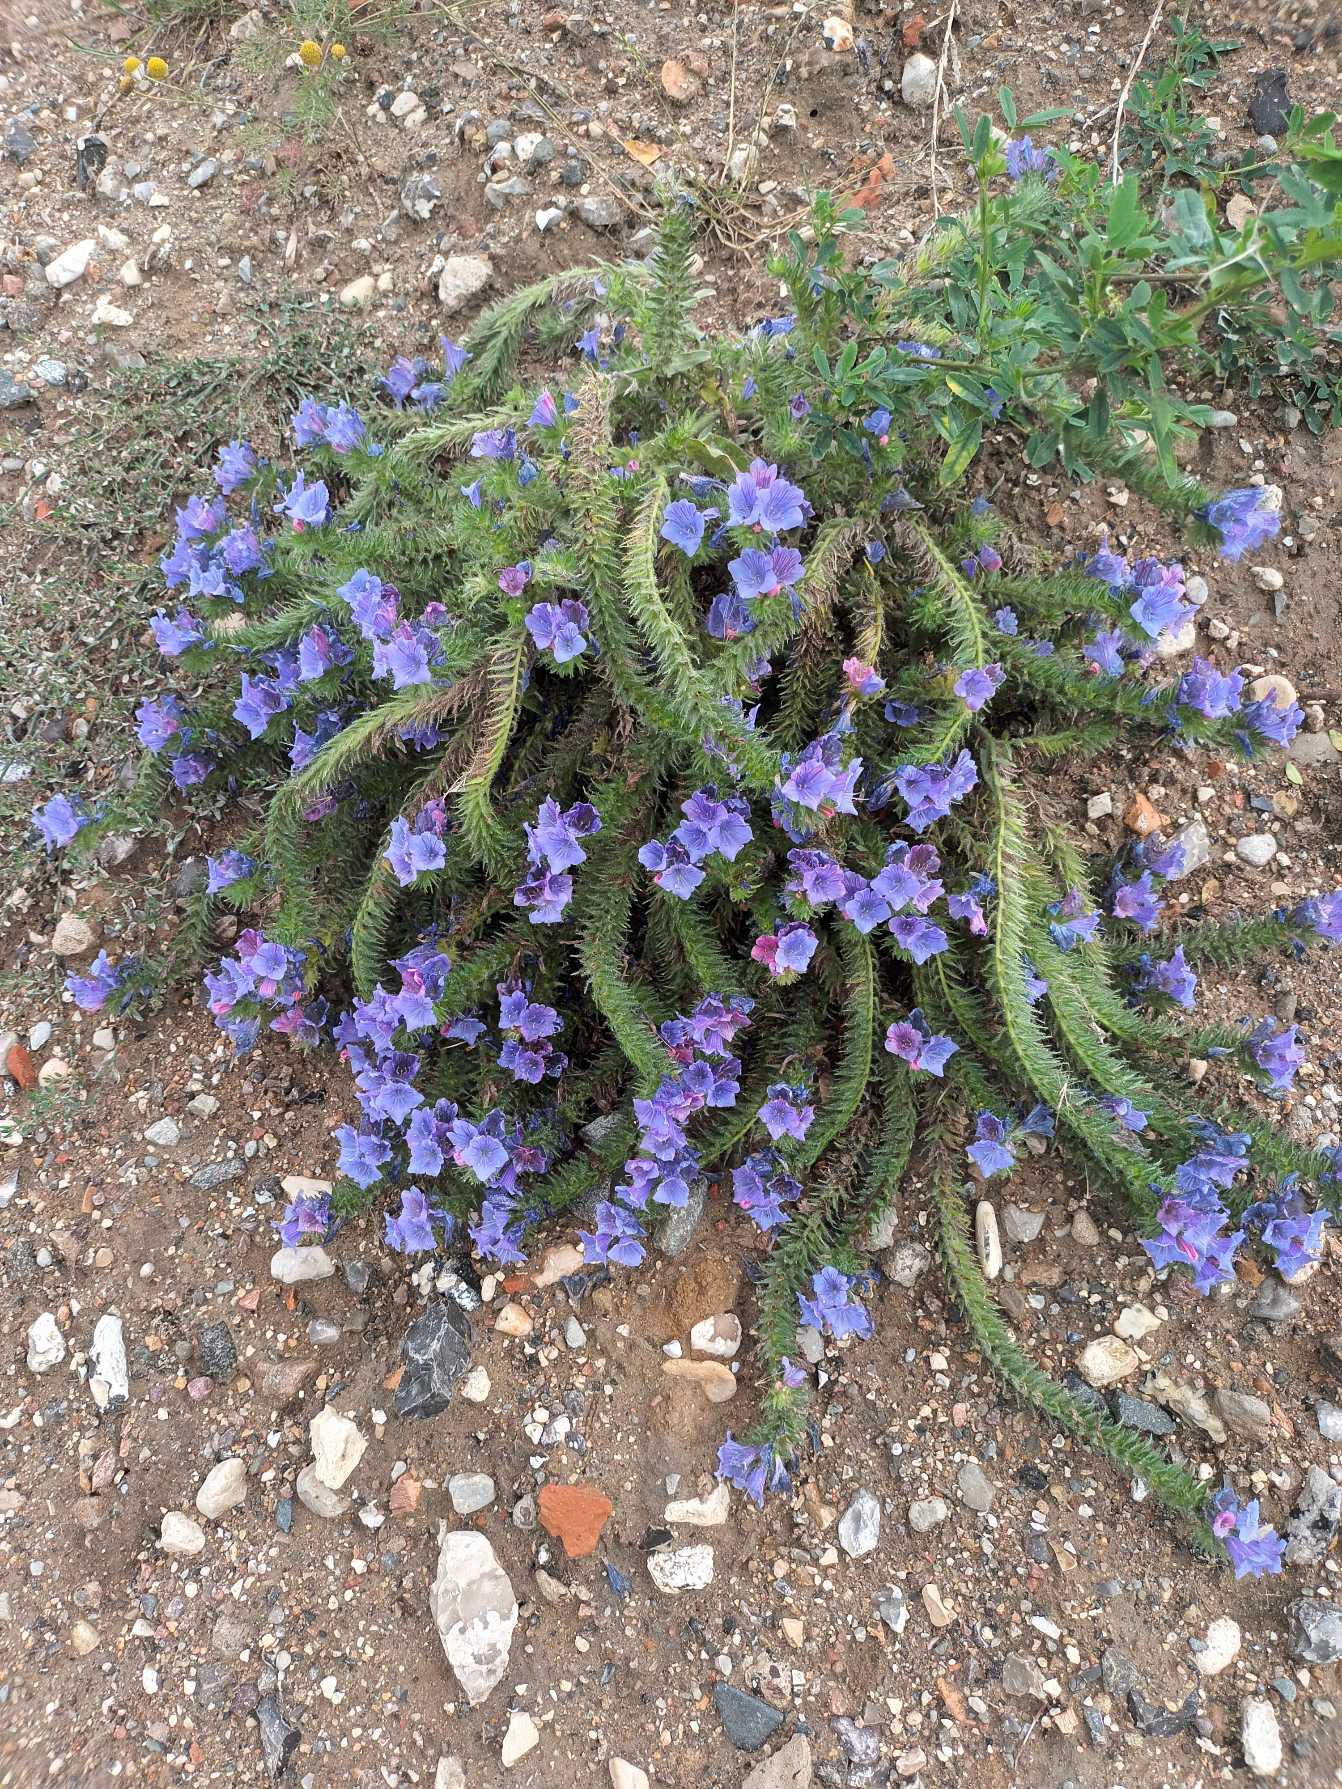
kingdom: Plantae
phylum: Tracheophyta
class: Magnoliopsida
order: Boraginales
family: Boraginaceae
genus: Echium
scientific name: Echium plantagineum
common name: Vejbred-slangehoved
